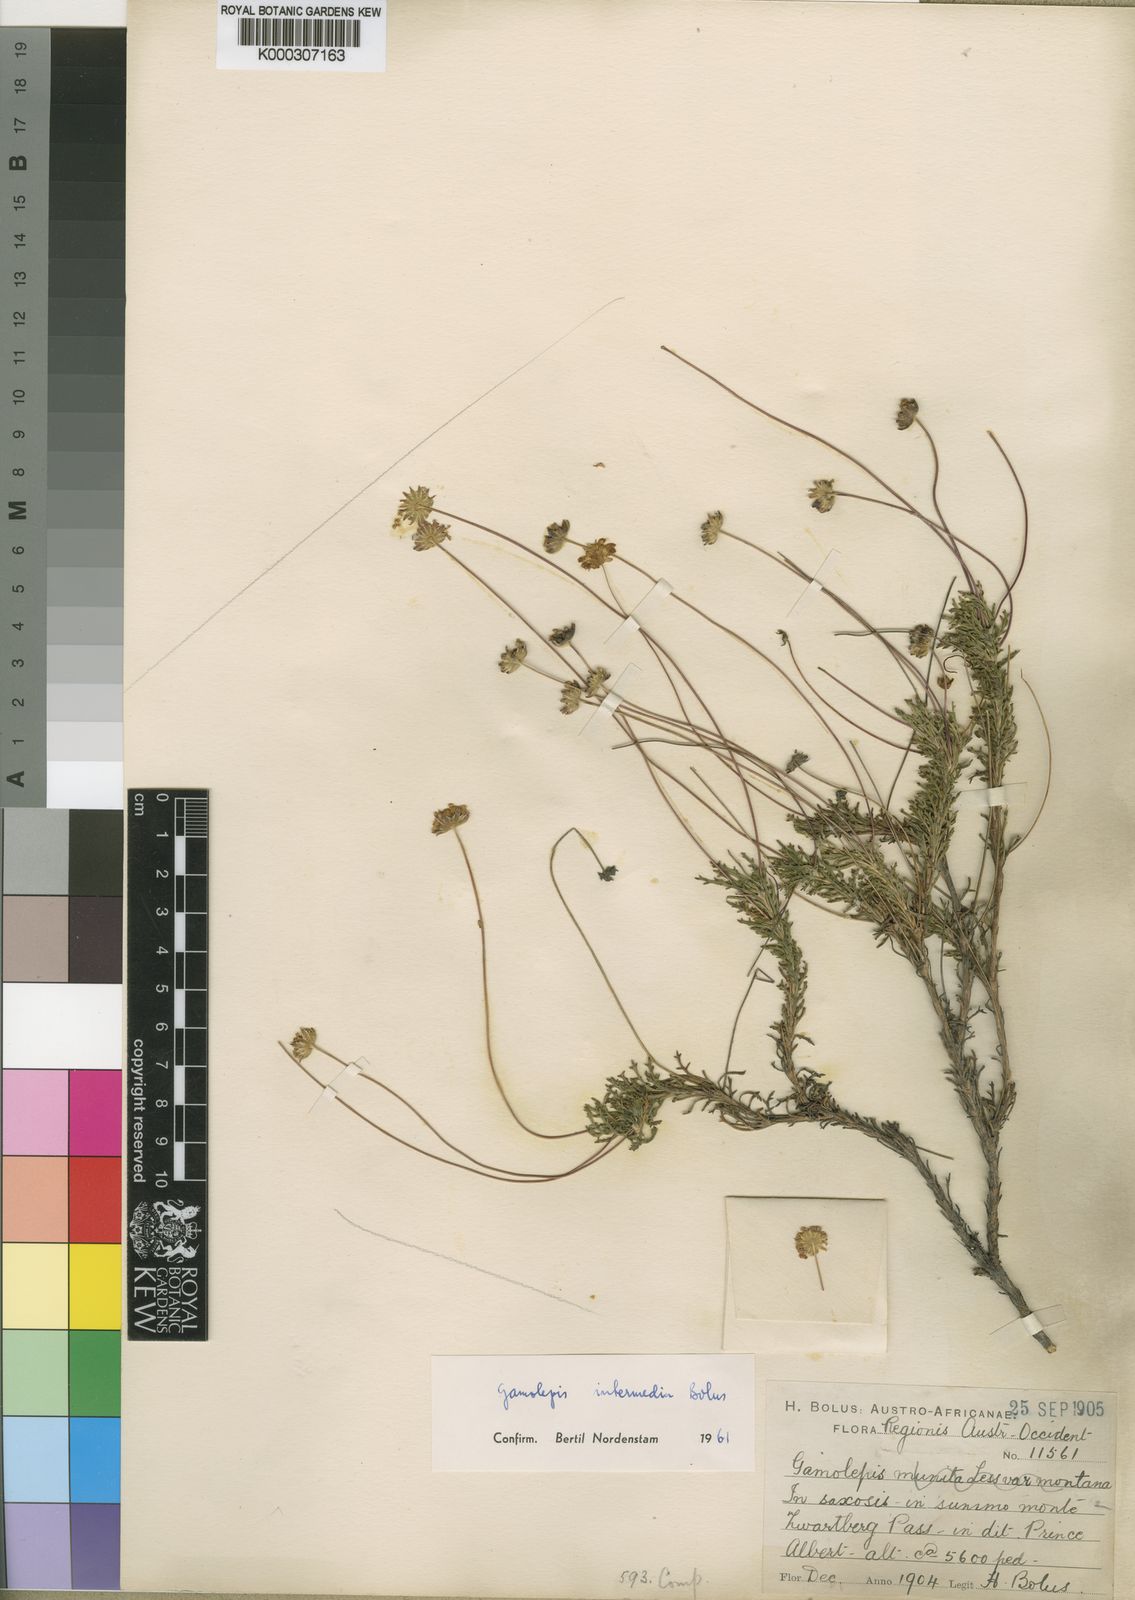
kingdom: Plantae
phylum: Tracheophyta
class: Magnoliopsida
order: Asterales
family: Asteraceae
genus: Euryops
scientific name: Euryops bolusii
